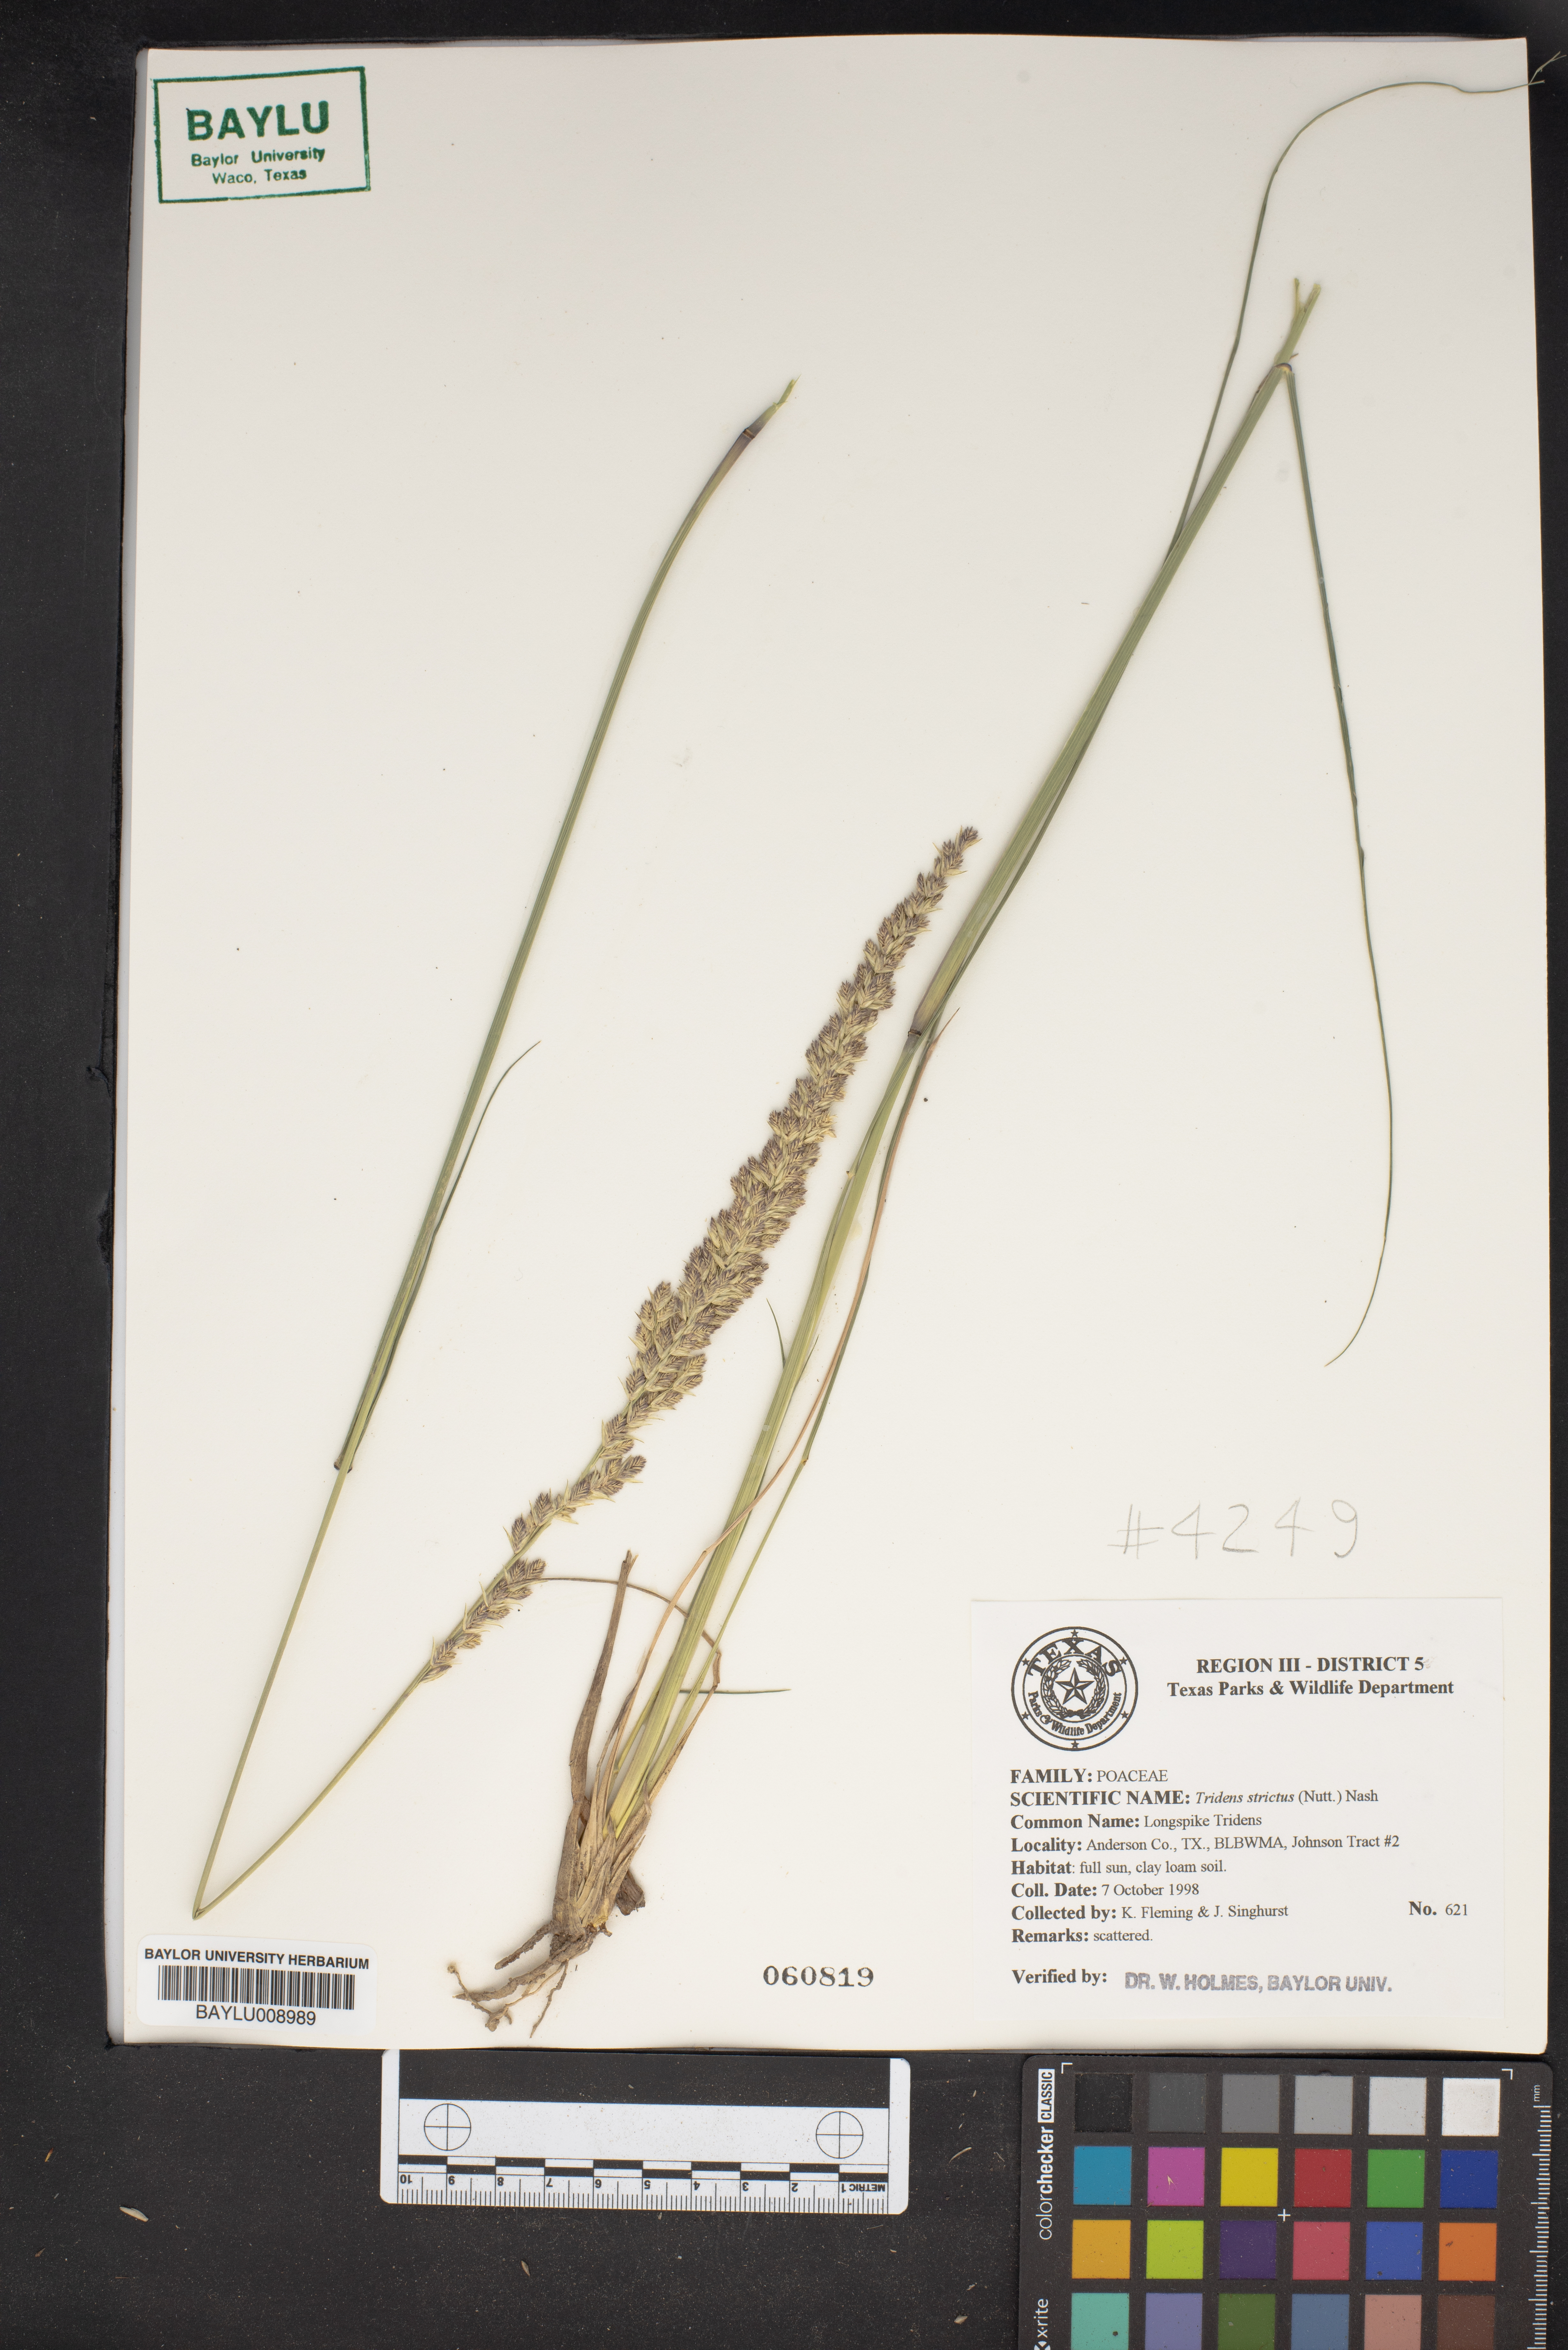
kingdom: Plantae
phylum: Tracheophyta
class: Liliopsida
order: Poales
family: Poaceae
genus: Tridens
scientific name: Tridens strictus
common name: Long-spike tridens
